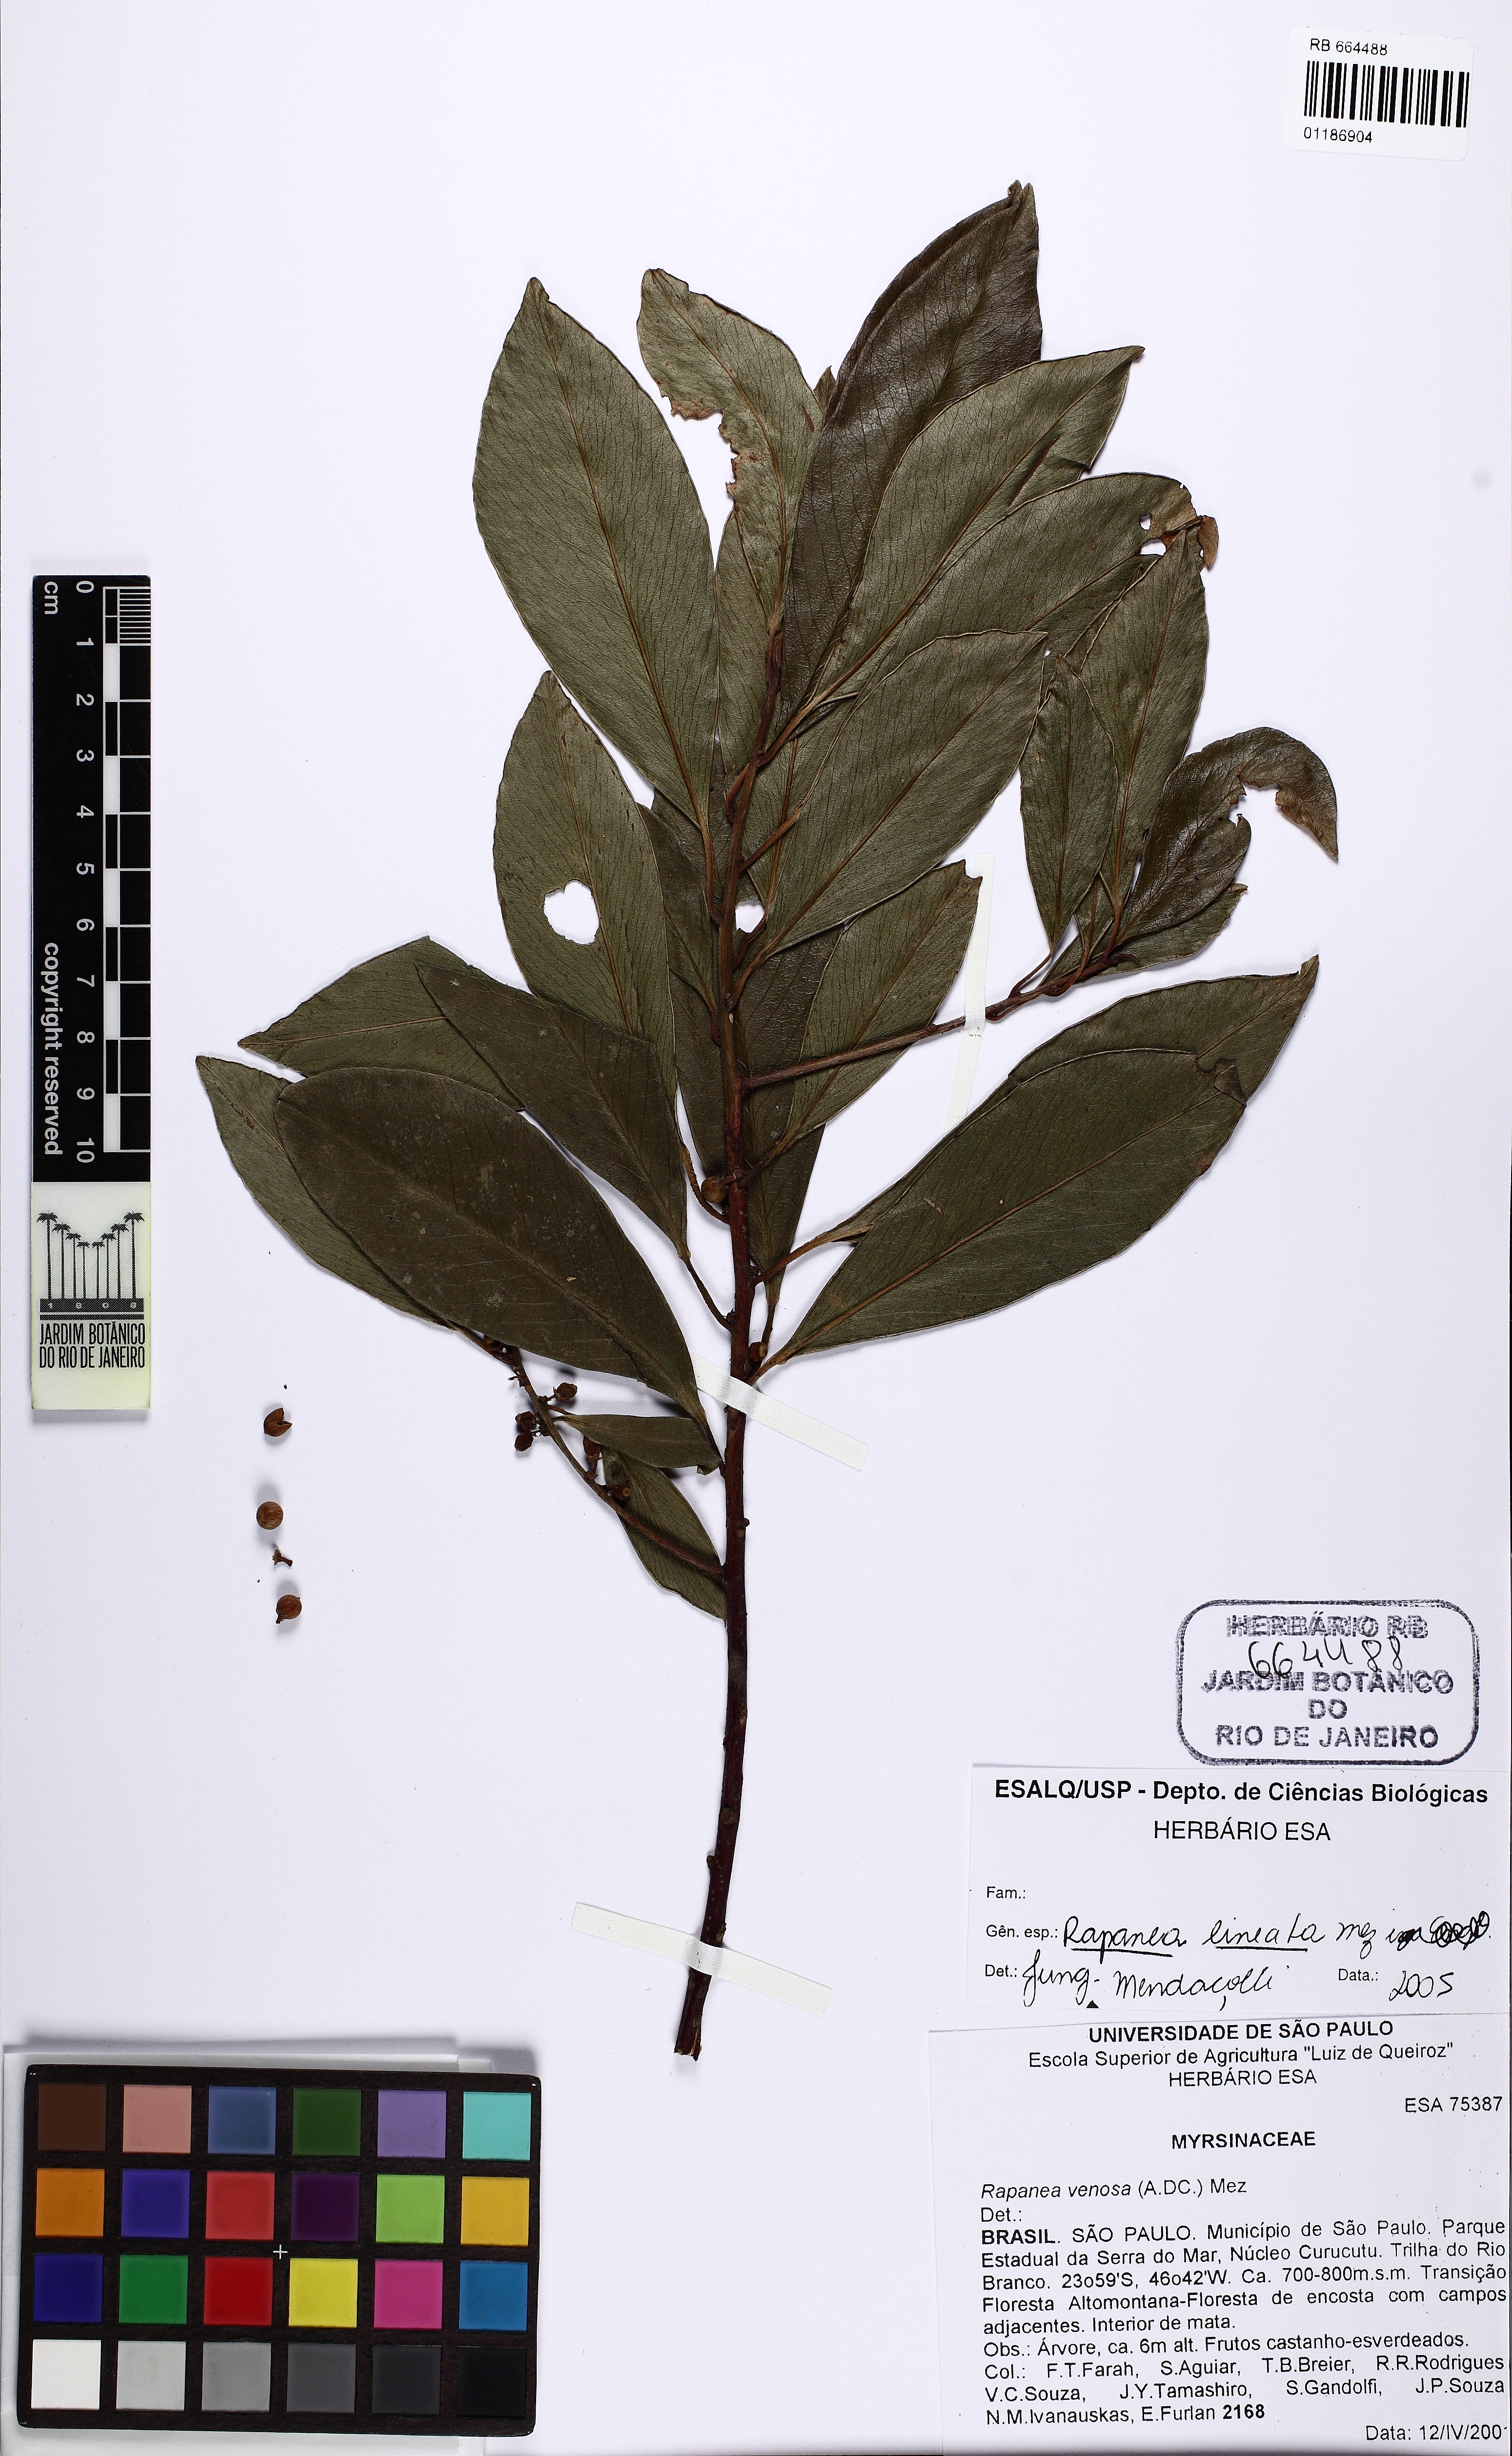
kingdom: Plantae
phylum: Tracheophyta
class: Magnoliopsida
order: Ericales
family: Primulaceae
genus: Myrsine
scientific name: Myrsine lineata
